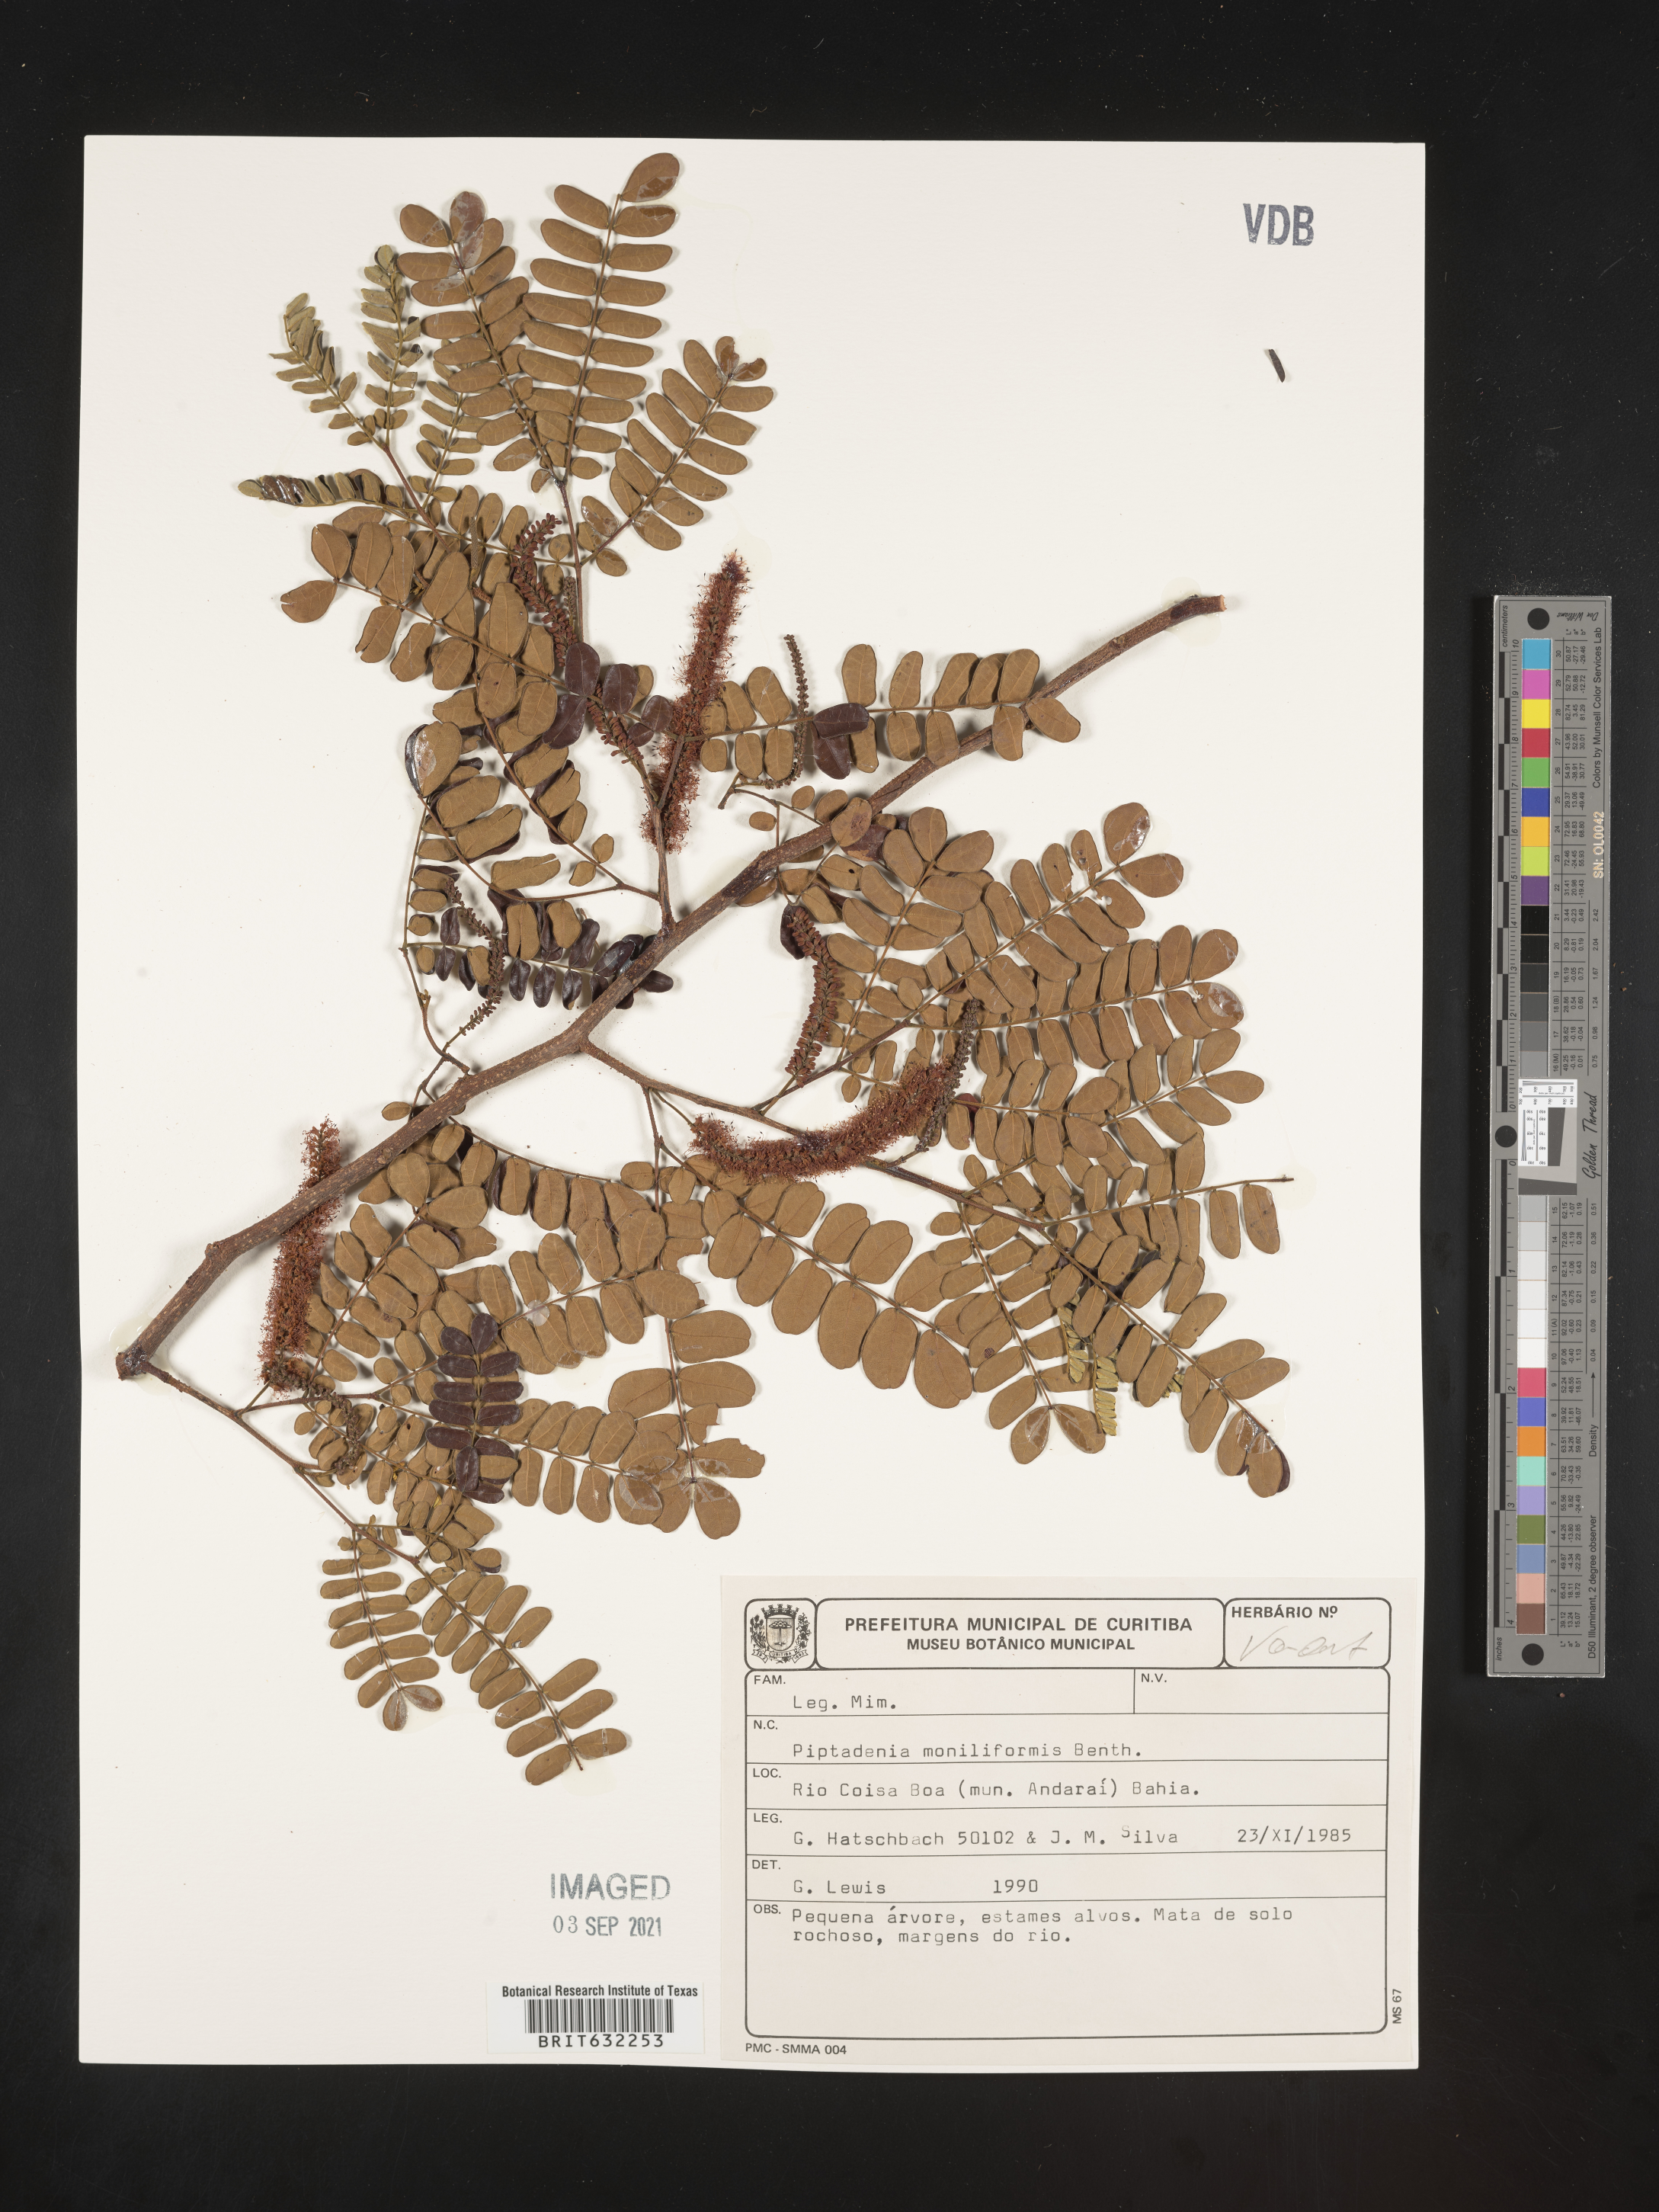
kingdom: Plantae
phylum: Tracheophyta
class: Magnoliopsida
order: Fabales
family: Fabaceae
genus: Piptadenia
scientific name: Piptadenia
